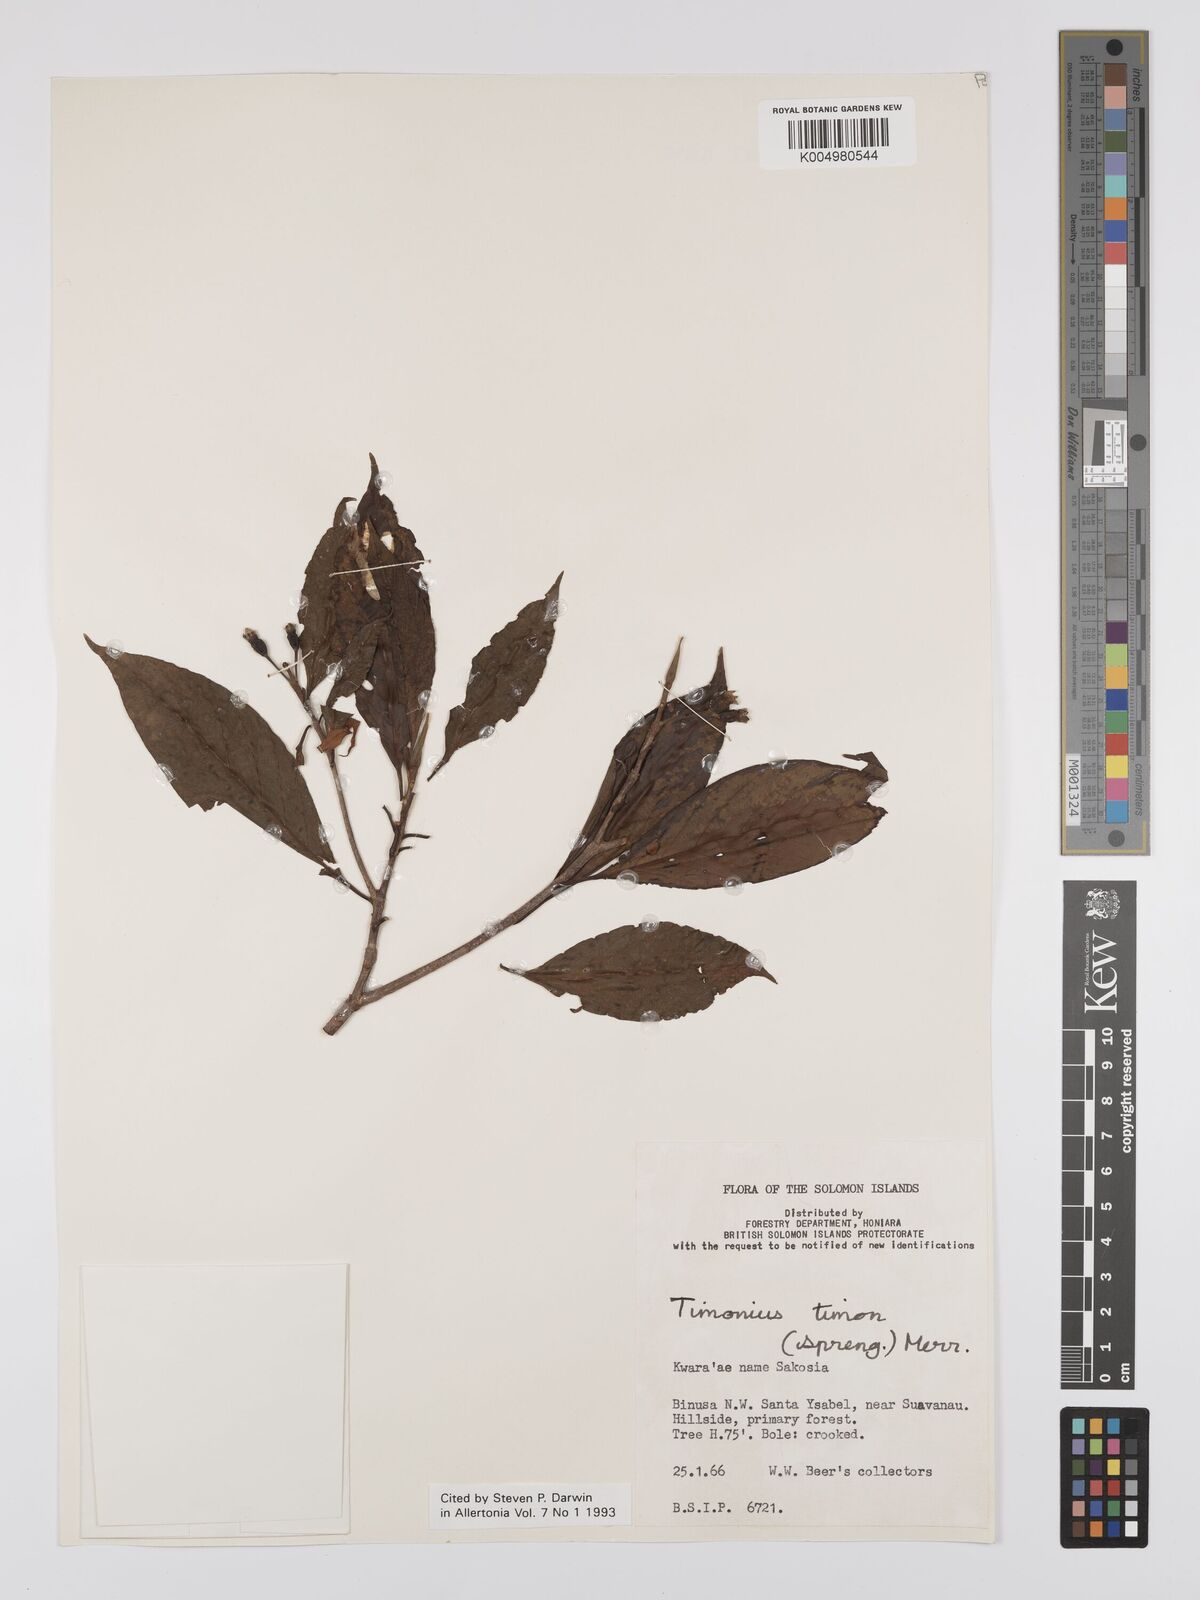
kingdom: Plantae
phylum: Tracheophyta
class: Magnoliopsida
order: Gentianales
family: Rubiaceae
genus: Timonius
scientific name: Timonius timon
